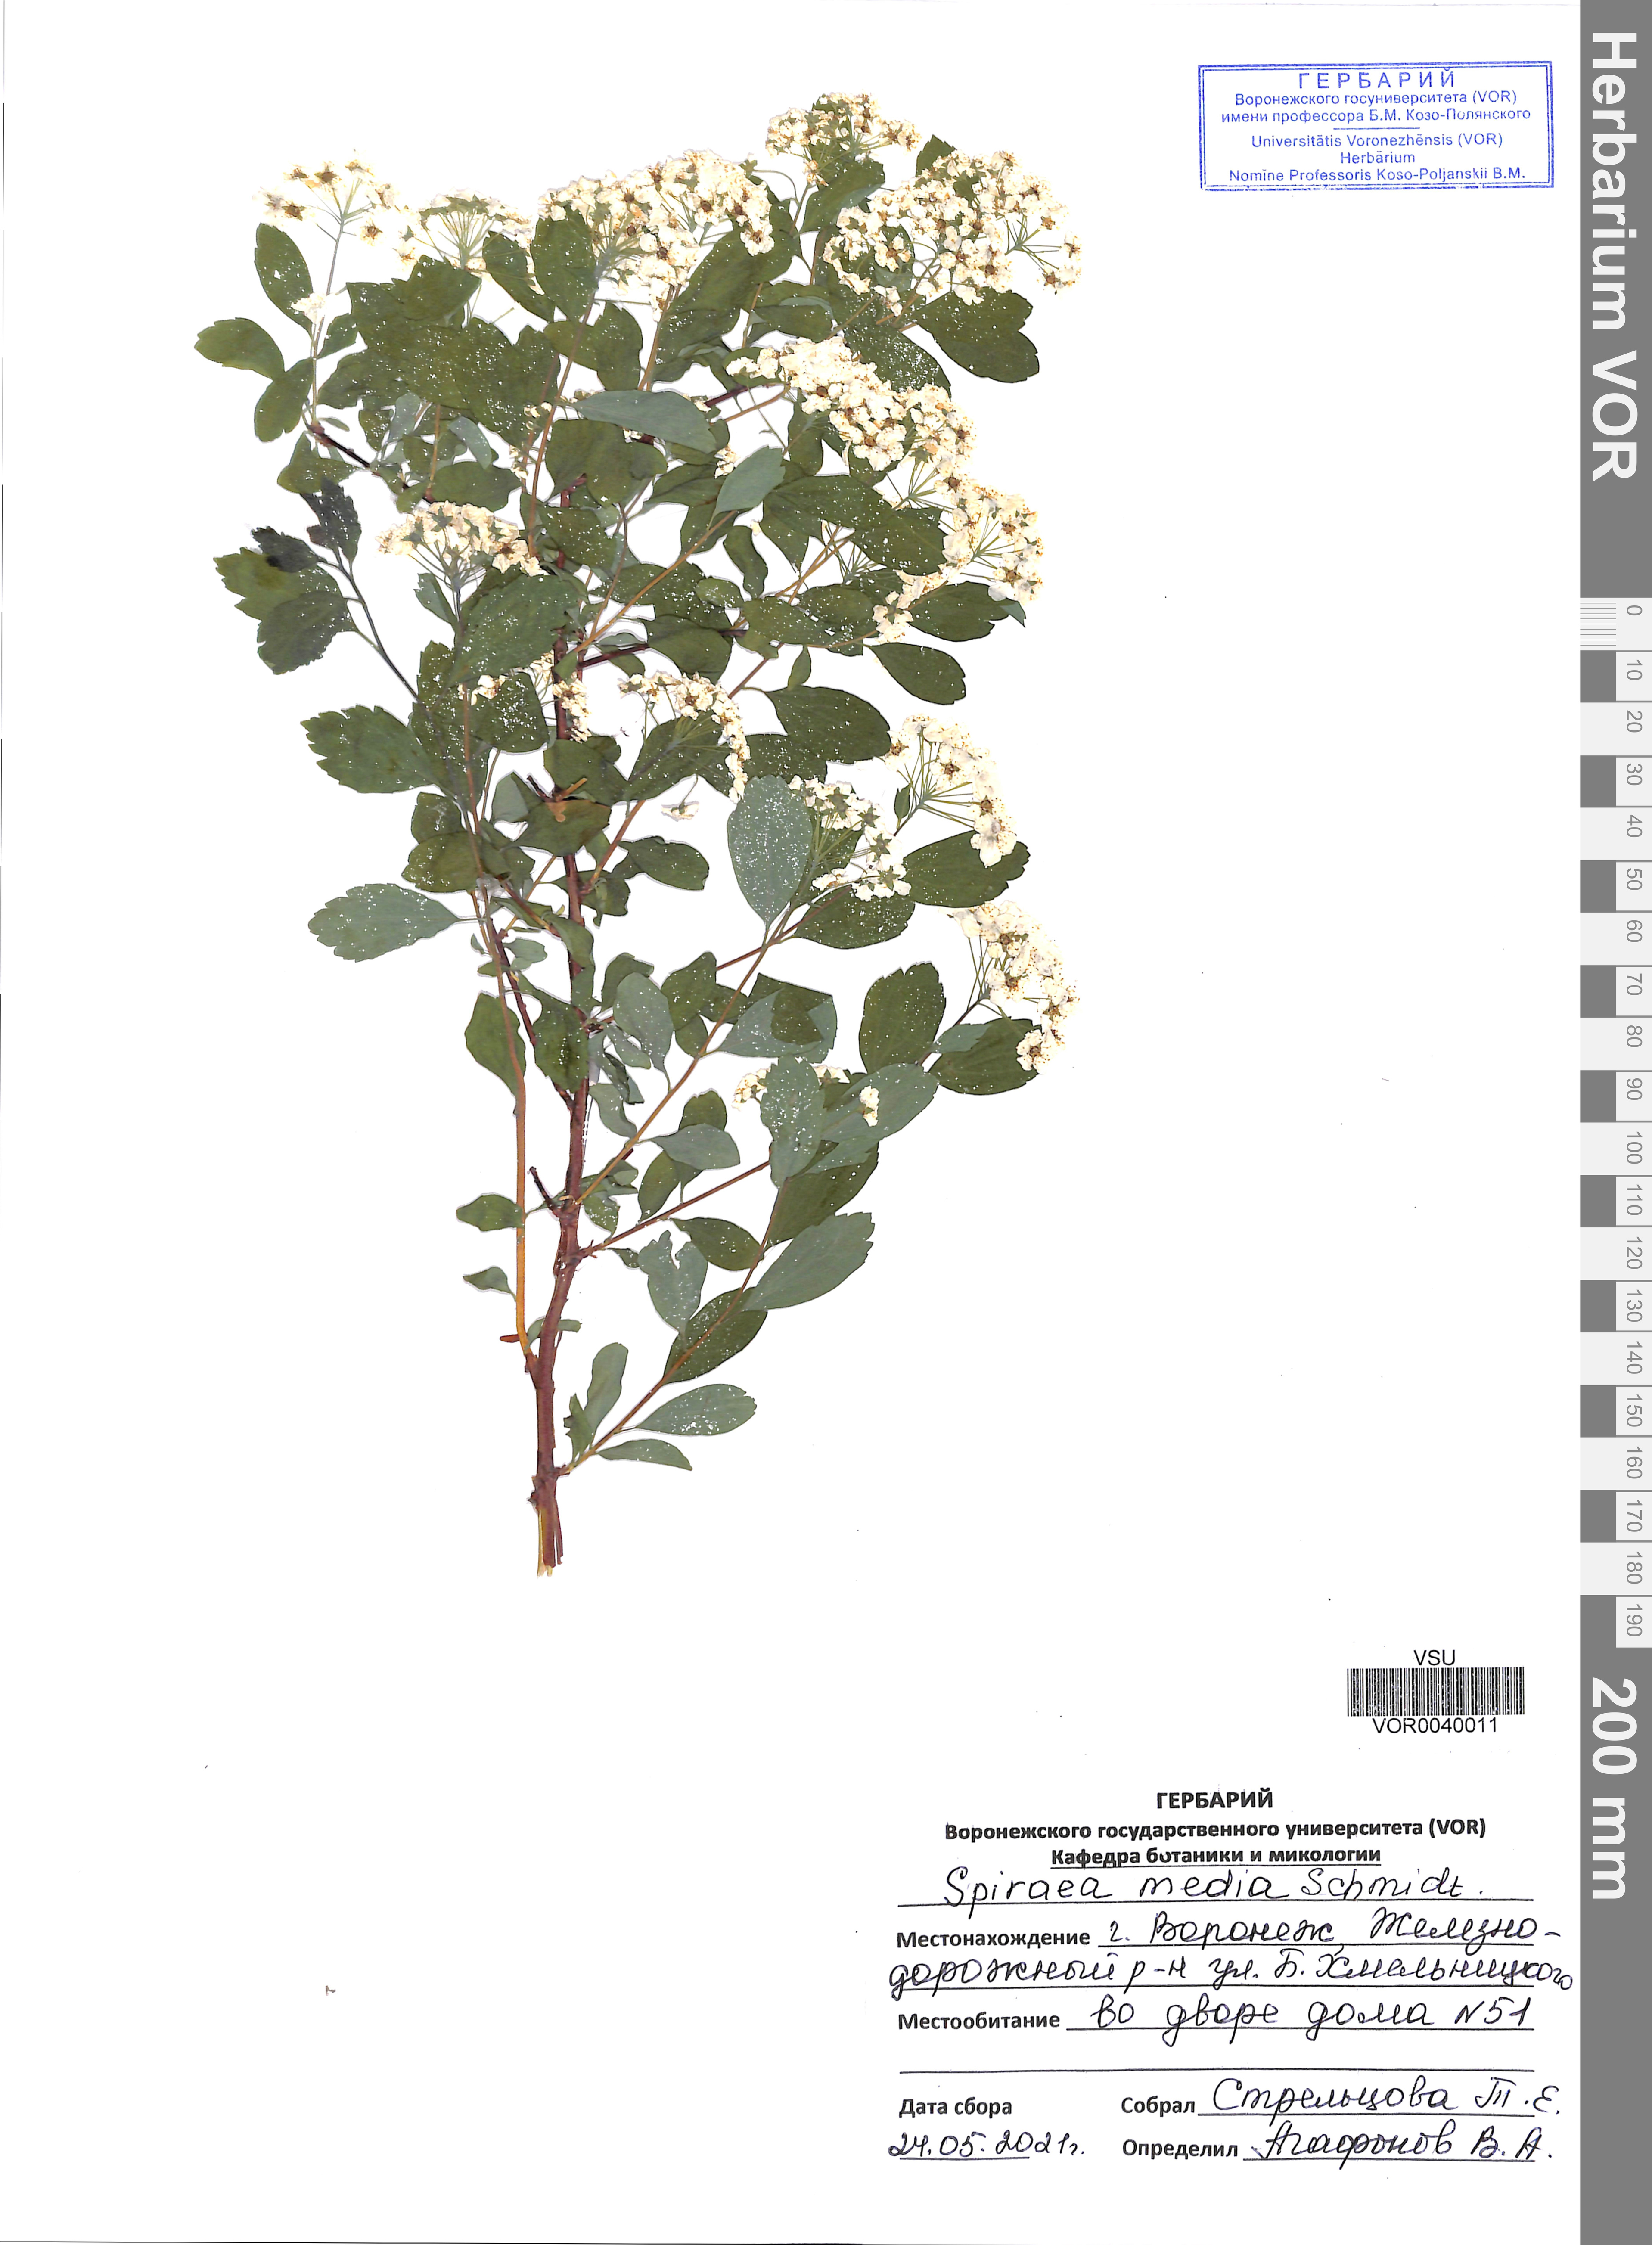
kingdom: Plantae
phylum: Tracheophyta
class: Magnoliopsida
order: Rosales
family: Rosaceae
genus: Spiraea
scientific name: Spiraea media
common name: Russian spiraea
